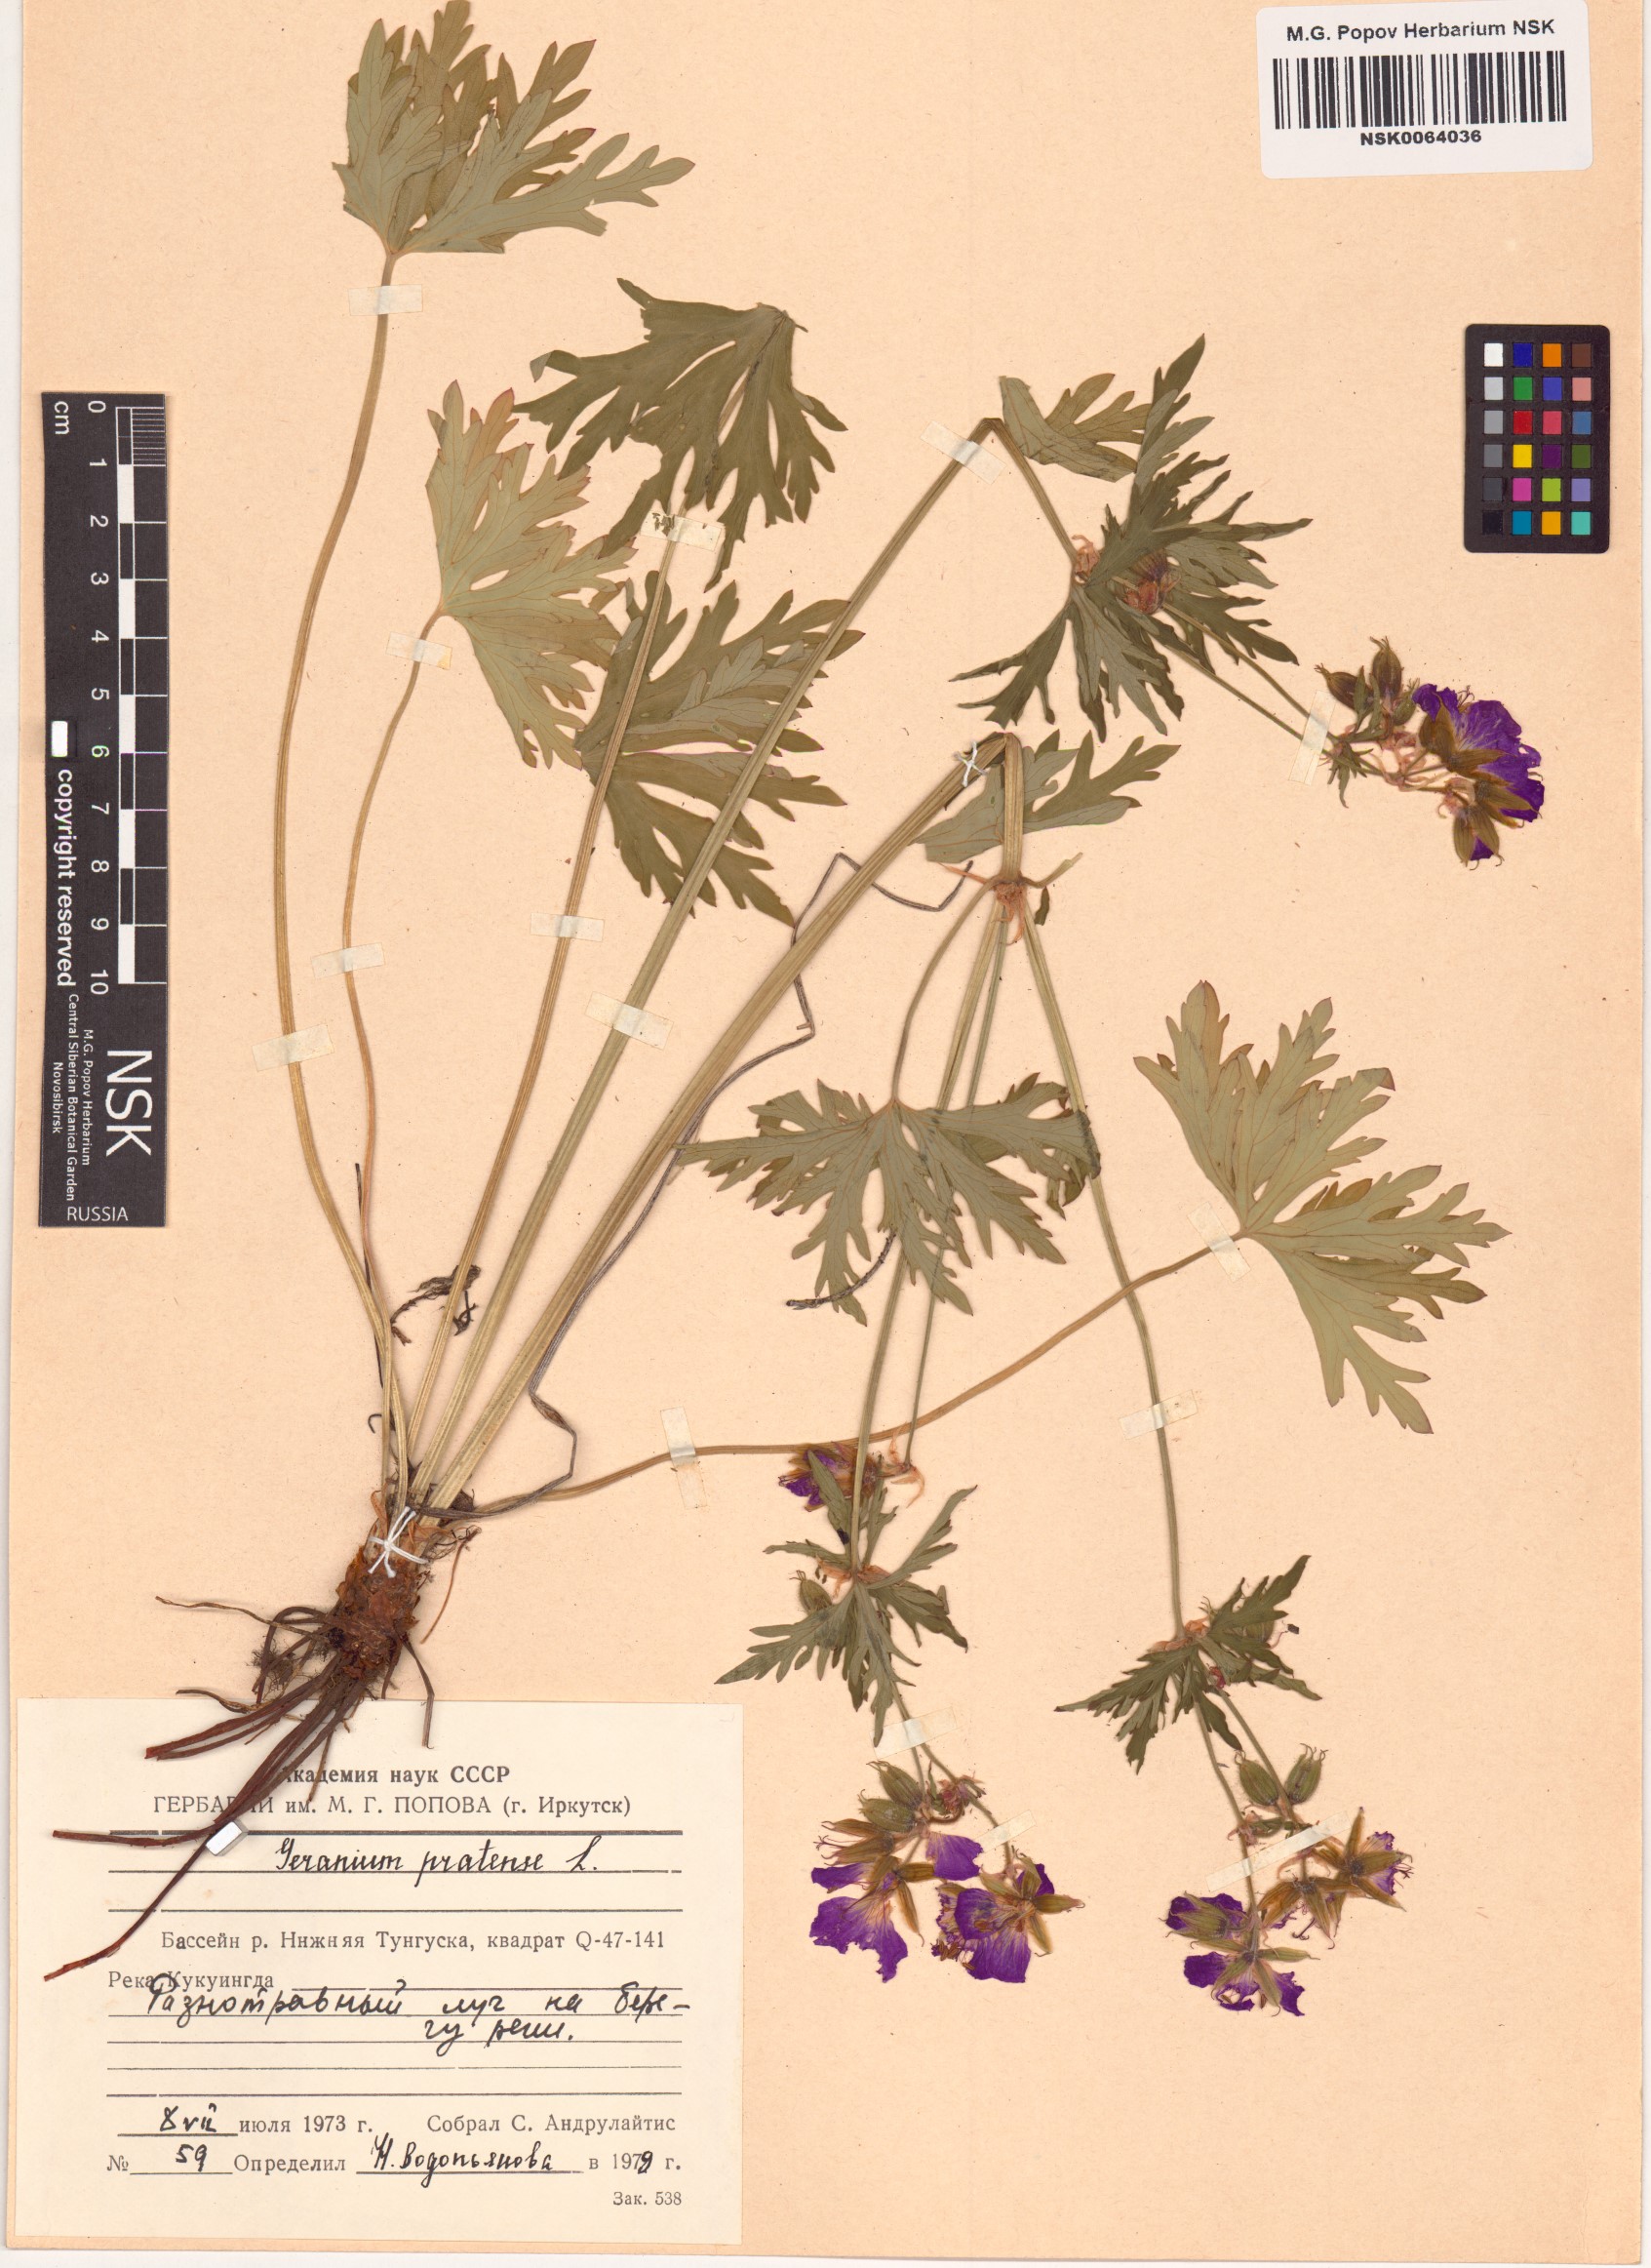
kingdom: Plantae
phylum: Tracheophyta
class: Magnoliopsida
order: Geraniales
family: Geraniaceae
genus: Geranium
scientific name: Geranium pratense
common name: Meadow crane's-bill
